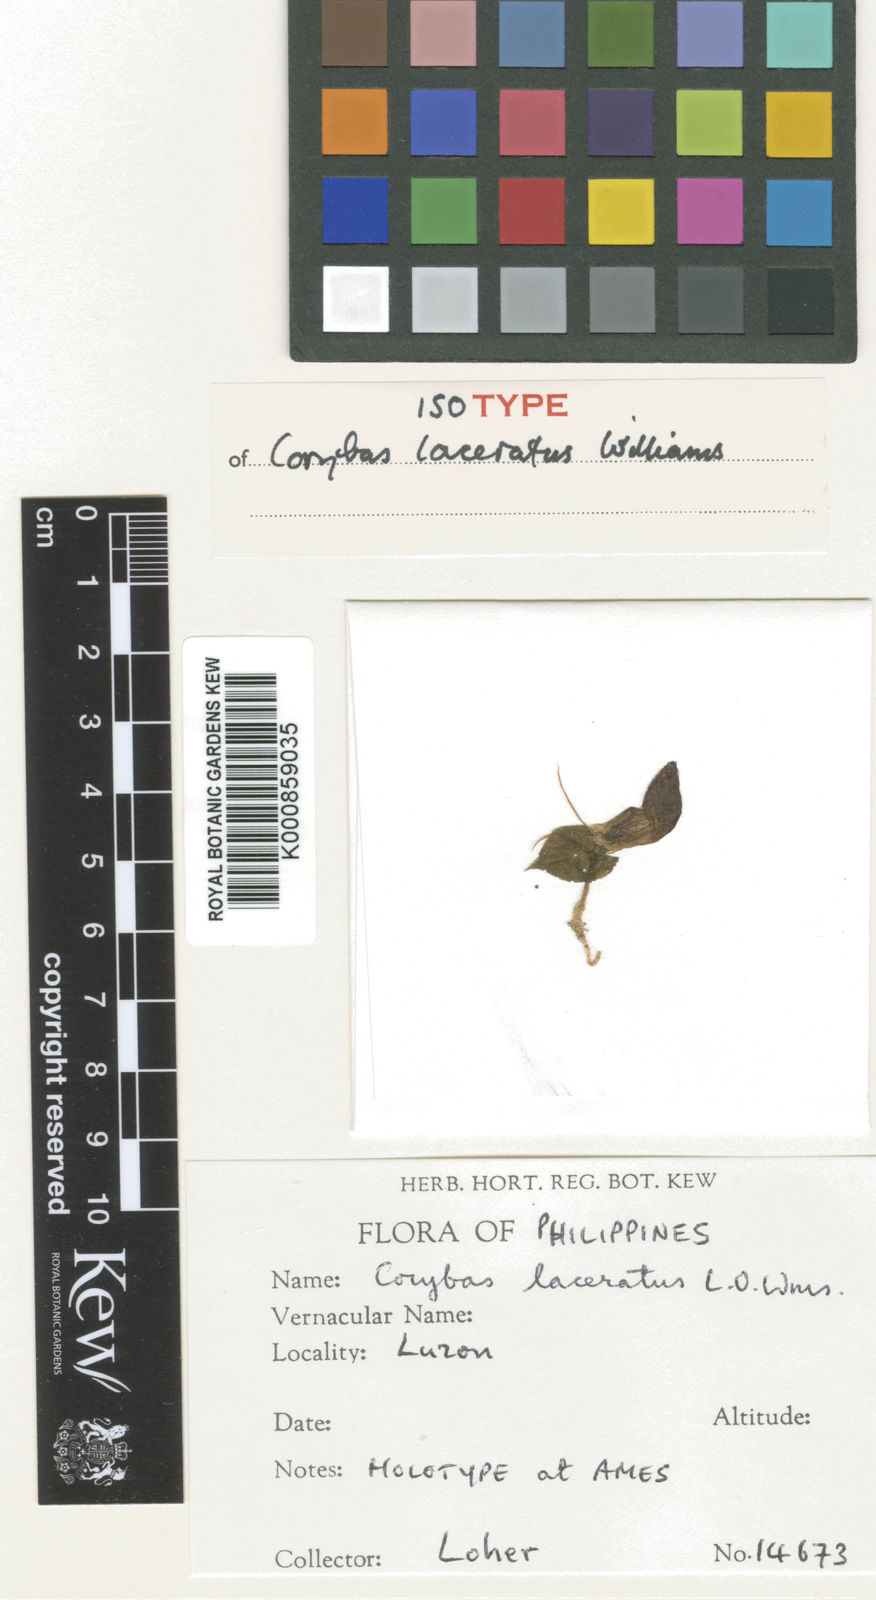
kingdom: Plantae
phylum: Tracheophyta
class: Liliopsida
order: Asparagales
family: Orchidaceae
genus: Corybas
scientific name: Corybas laceratus
